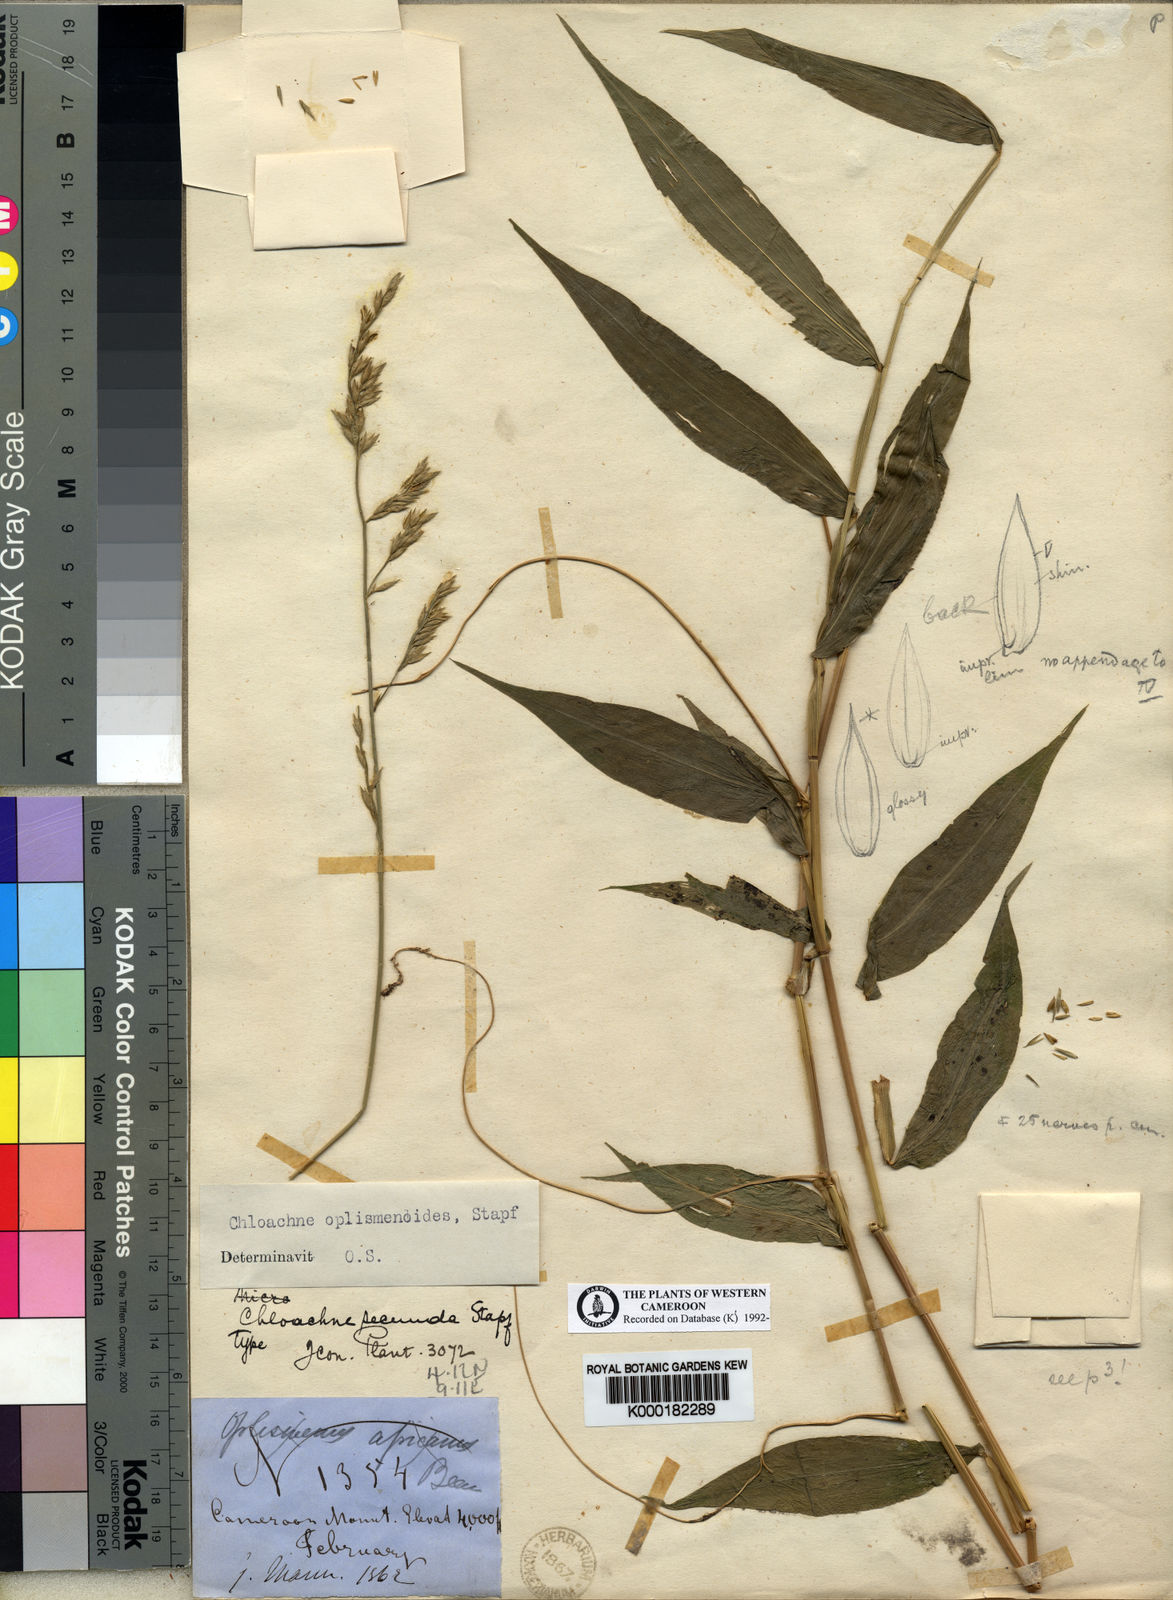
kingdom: Plantae
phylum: Tracheophyta
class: Liliopsida
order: Poales
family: Poaceae
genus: Poecilostachys
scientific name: Poecilostachys oplismenoides
